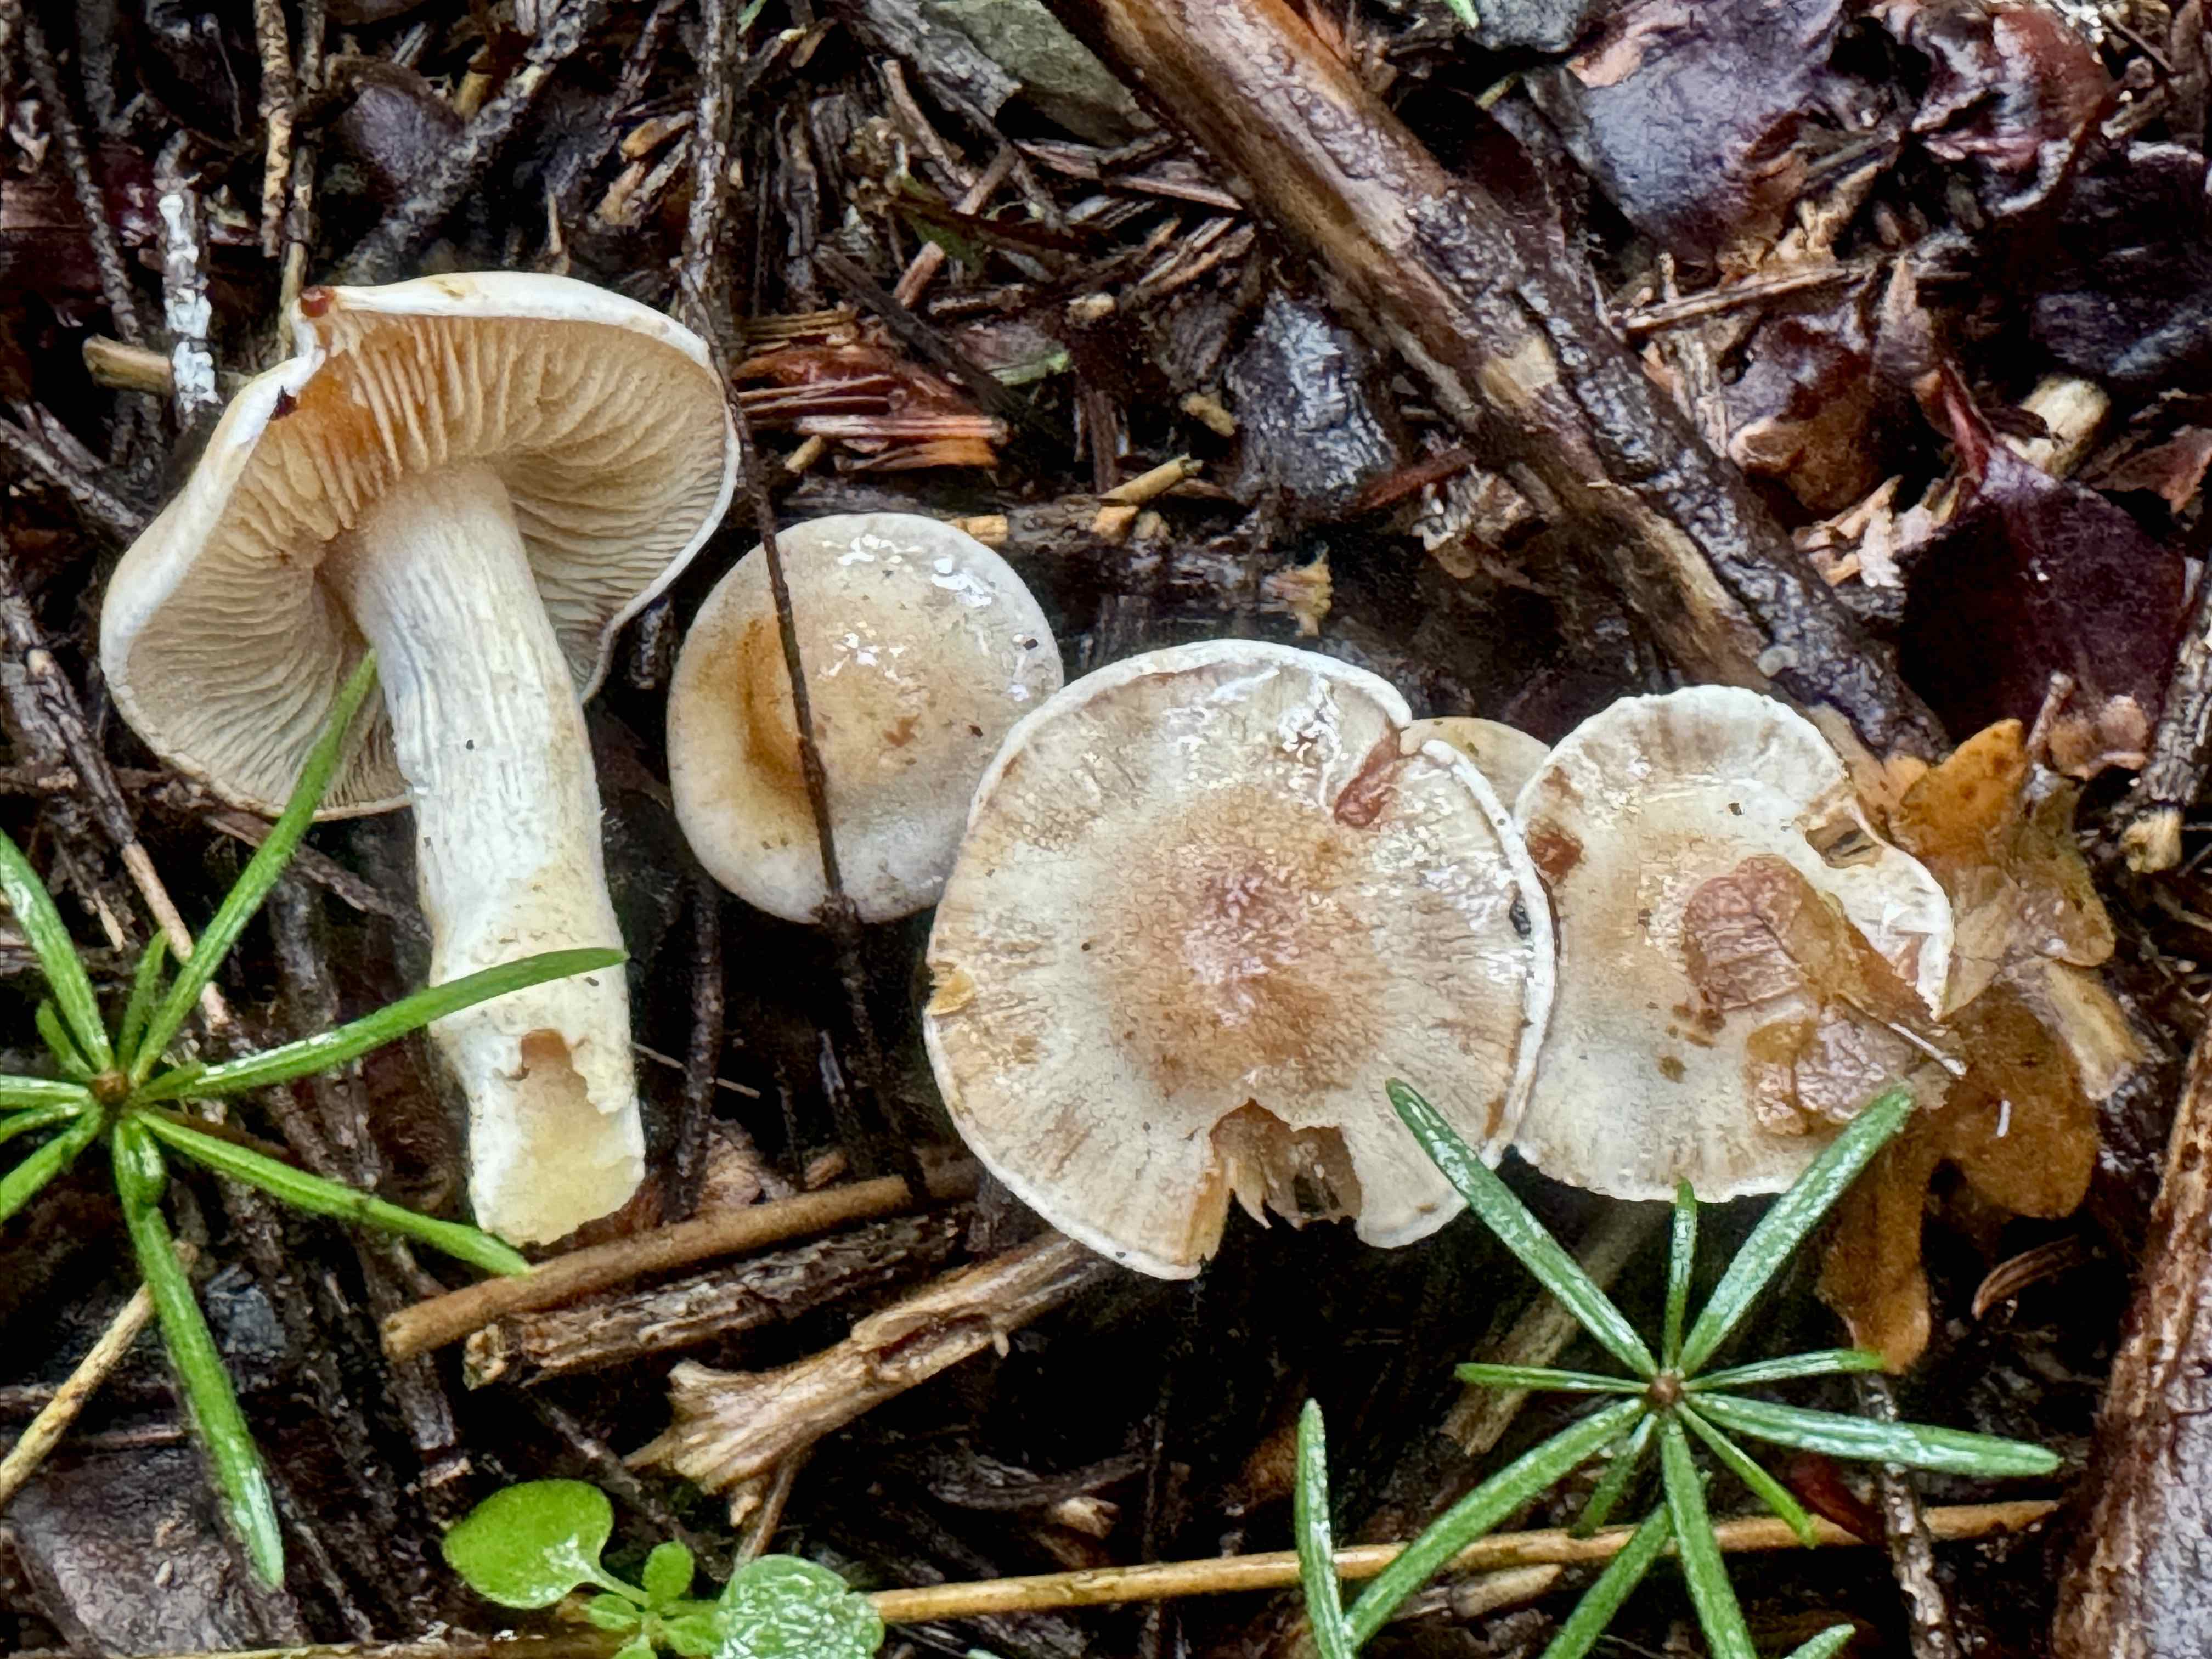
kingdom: Fungi
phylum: Basidiomycota
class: Agaricomycetes
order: Agaricales
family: Cortinariaceae
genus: Thaxterogaster
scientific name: Thaxterogaster leucoluteolus
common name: isabella slørhat
